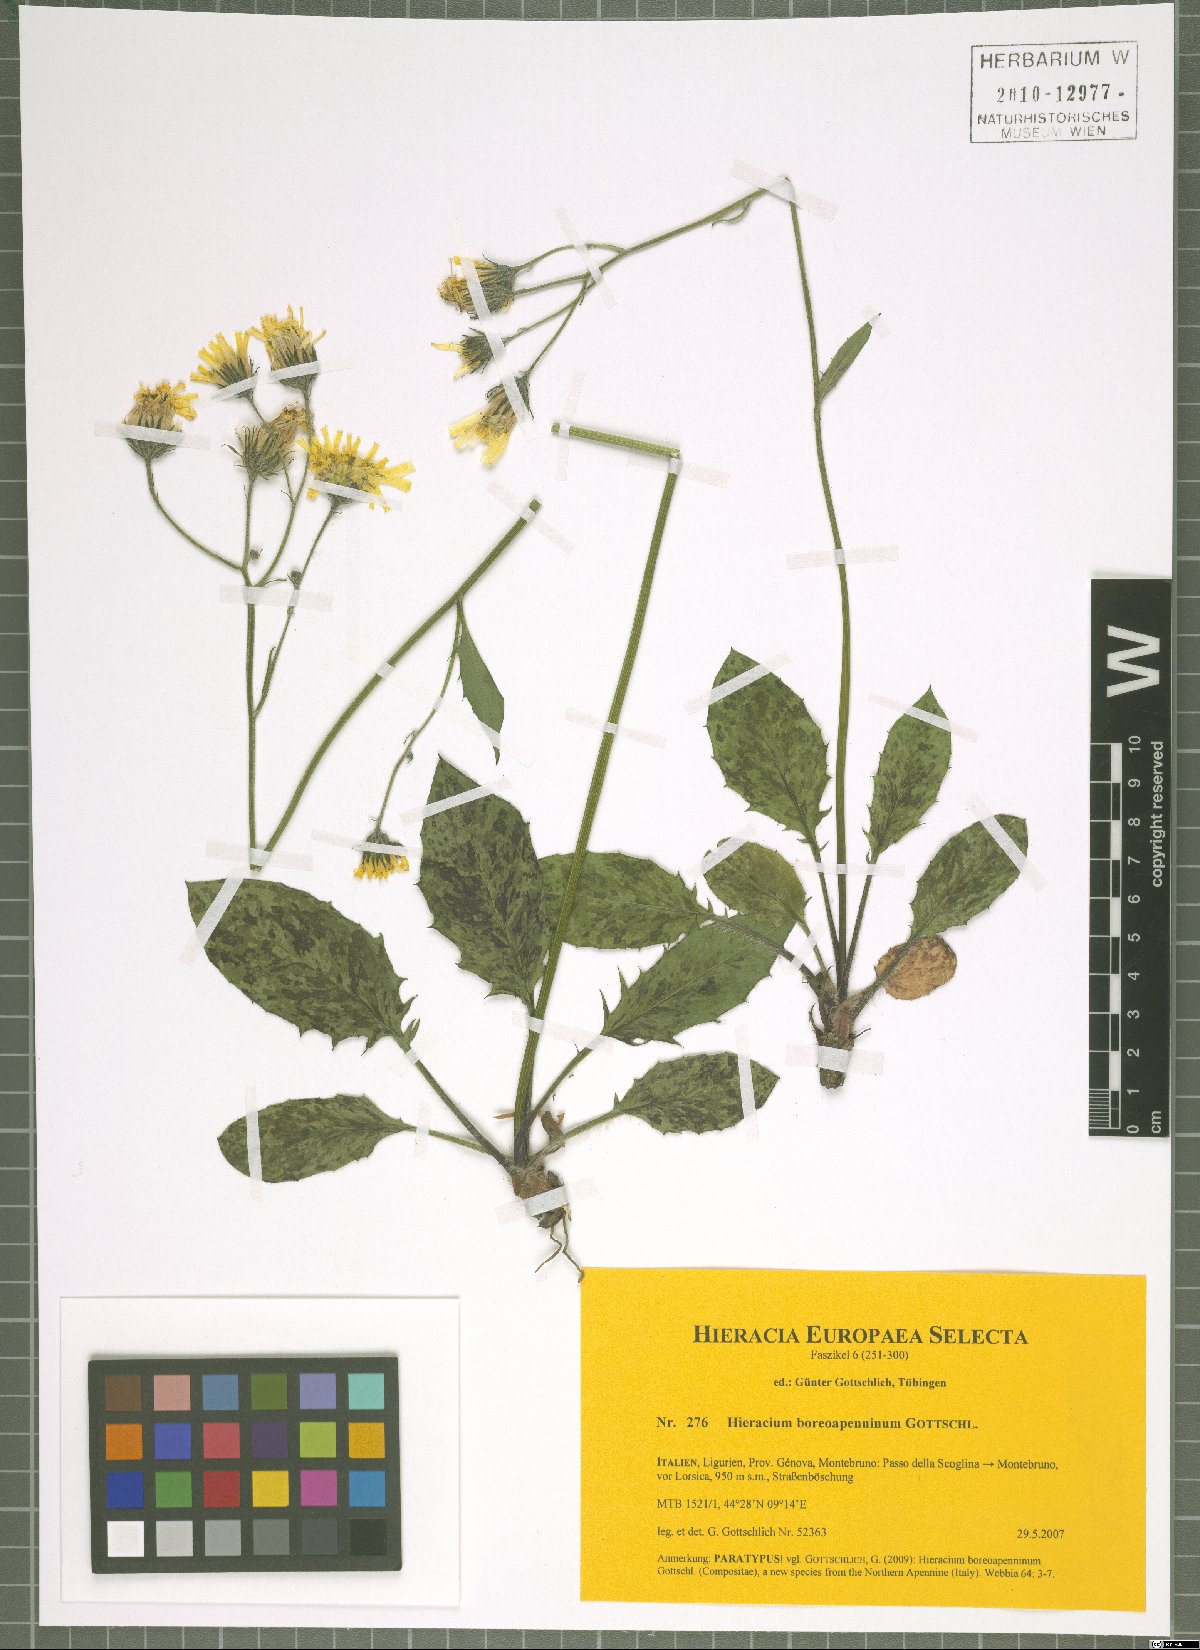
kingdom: Plantae
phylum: Tracheophyta
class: Magnoliopsida
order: Asterales
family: Asteraceae
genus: Hieracium
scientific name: Hieracium boreoapenninum
